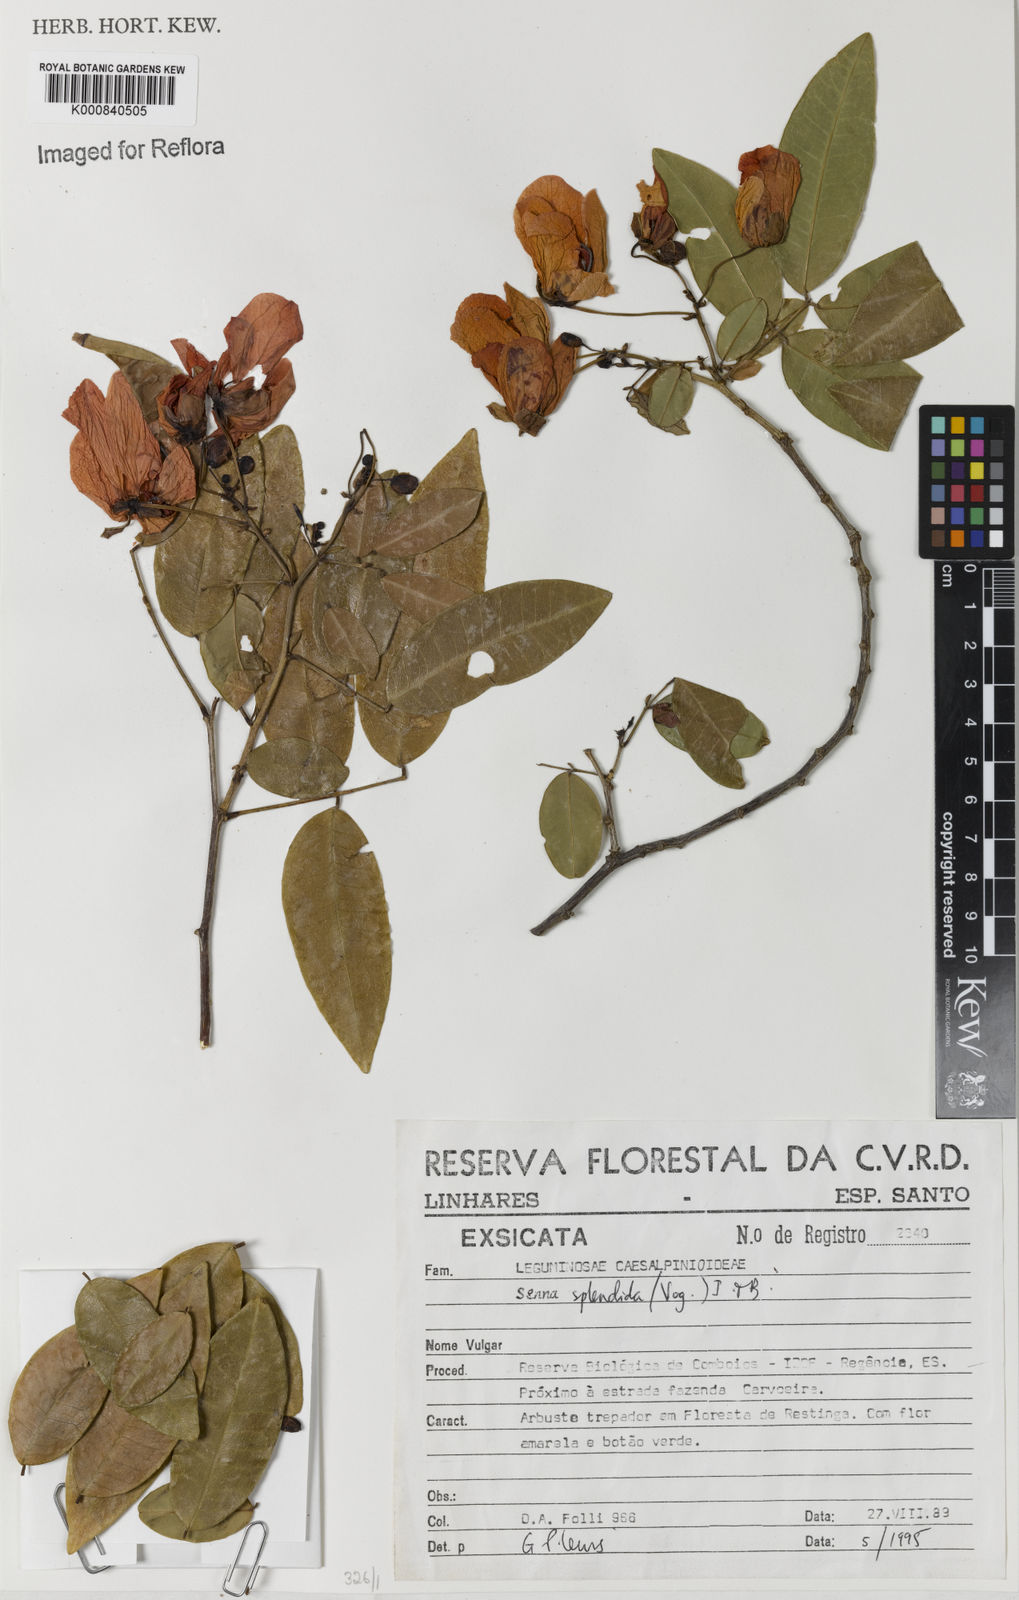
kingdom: Plantae
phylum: Tracheophyta
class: Magnoliopsida
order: Fabales
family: Fabaceae
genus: Senna
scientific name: Senna splendida
